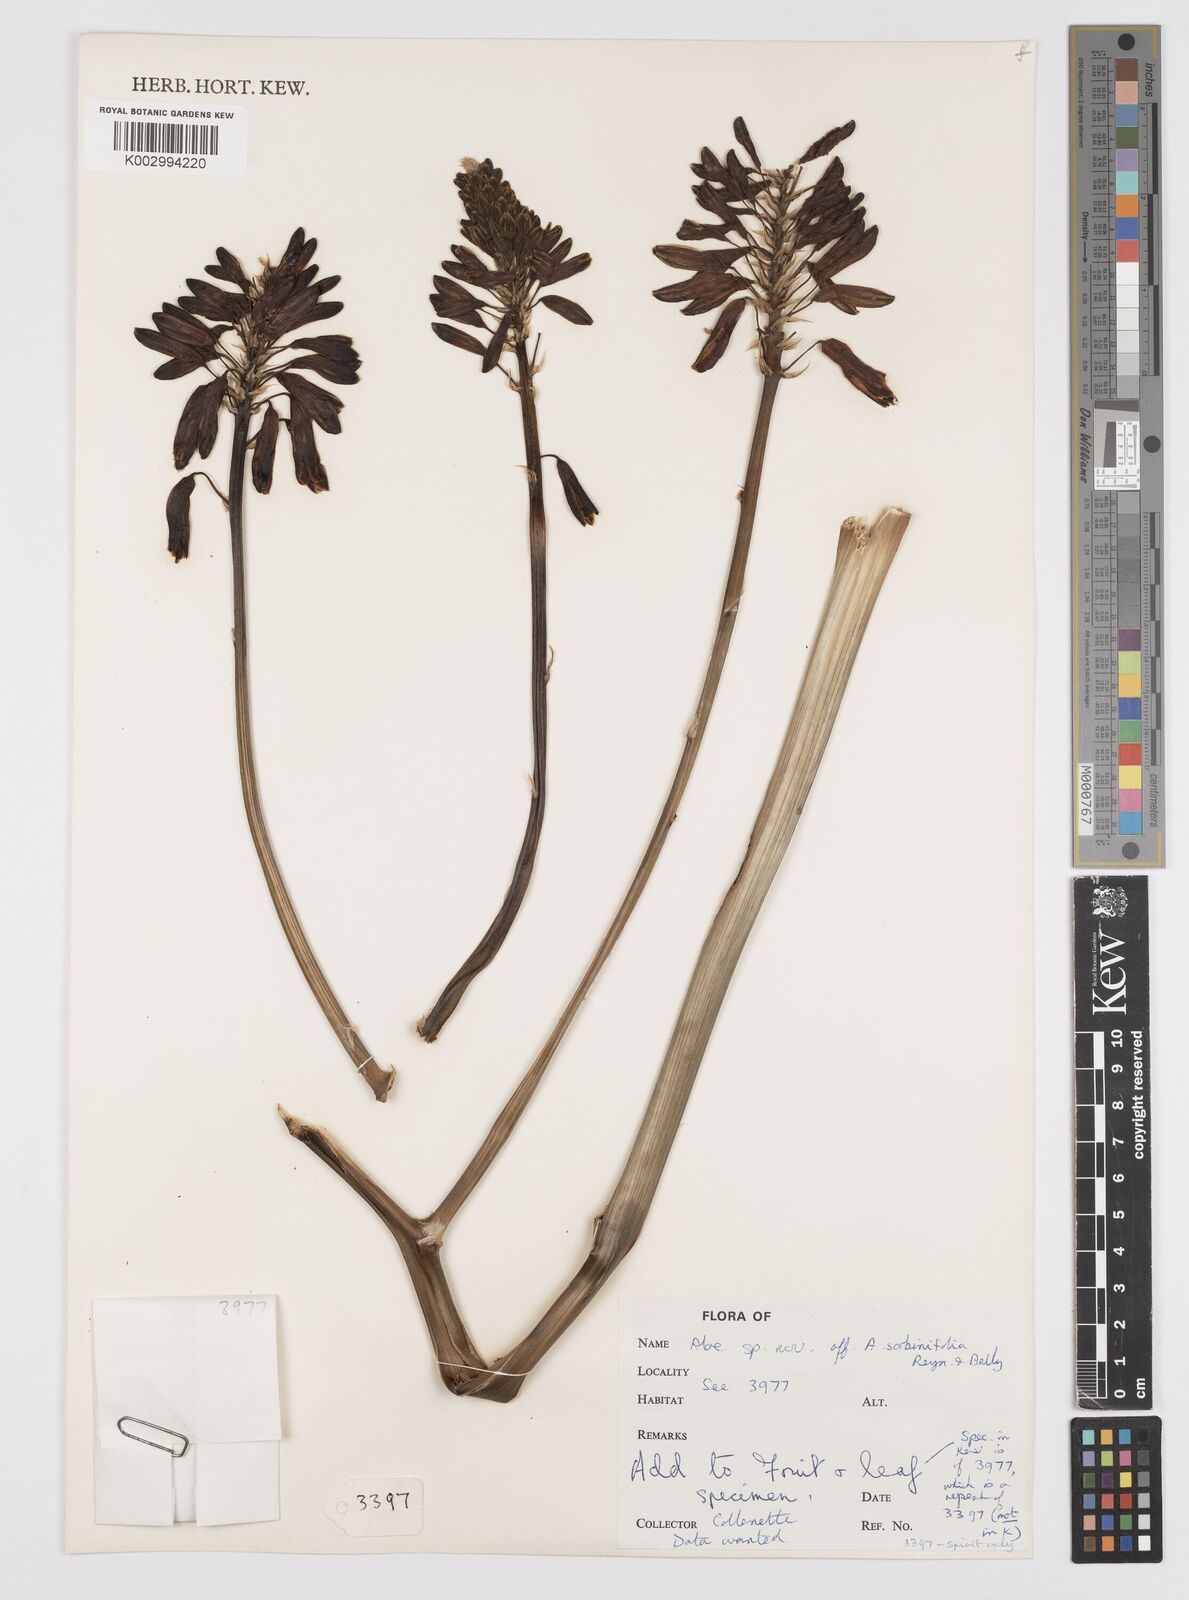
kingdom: Plantae
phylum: Tracheophyta
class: Liliopsida
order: Asparagales
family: Asphodelaceae
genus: Aloe
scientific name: Aloe sheilae
